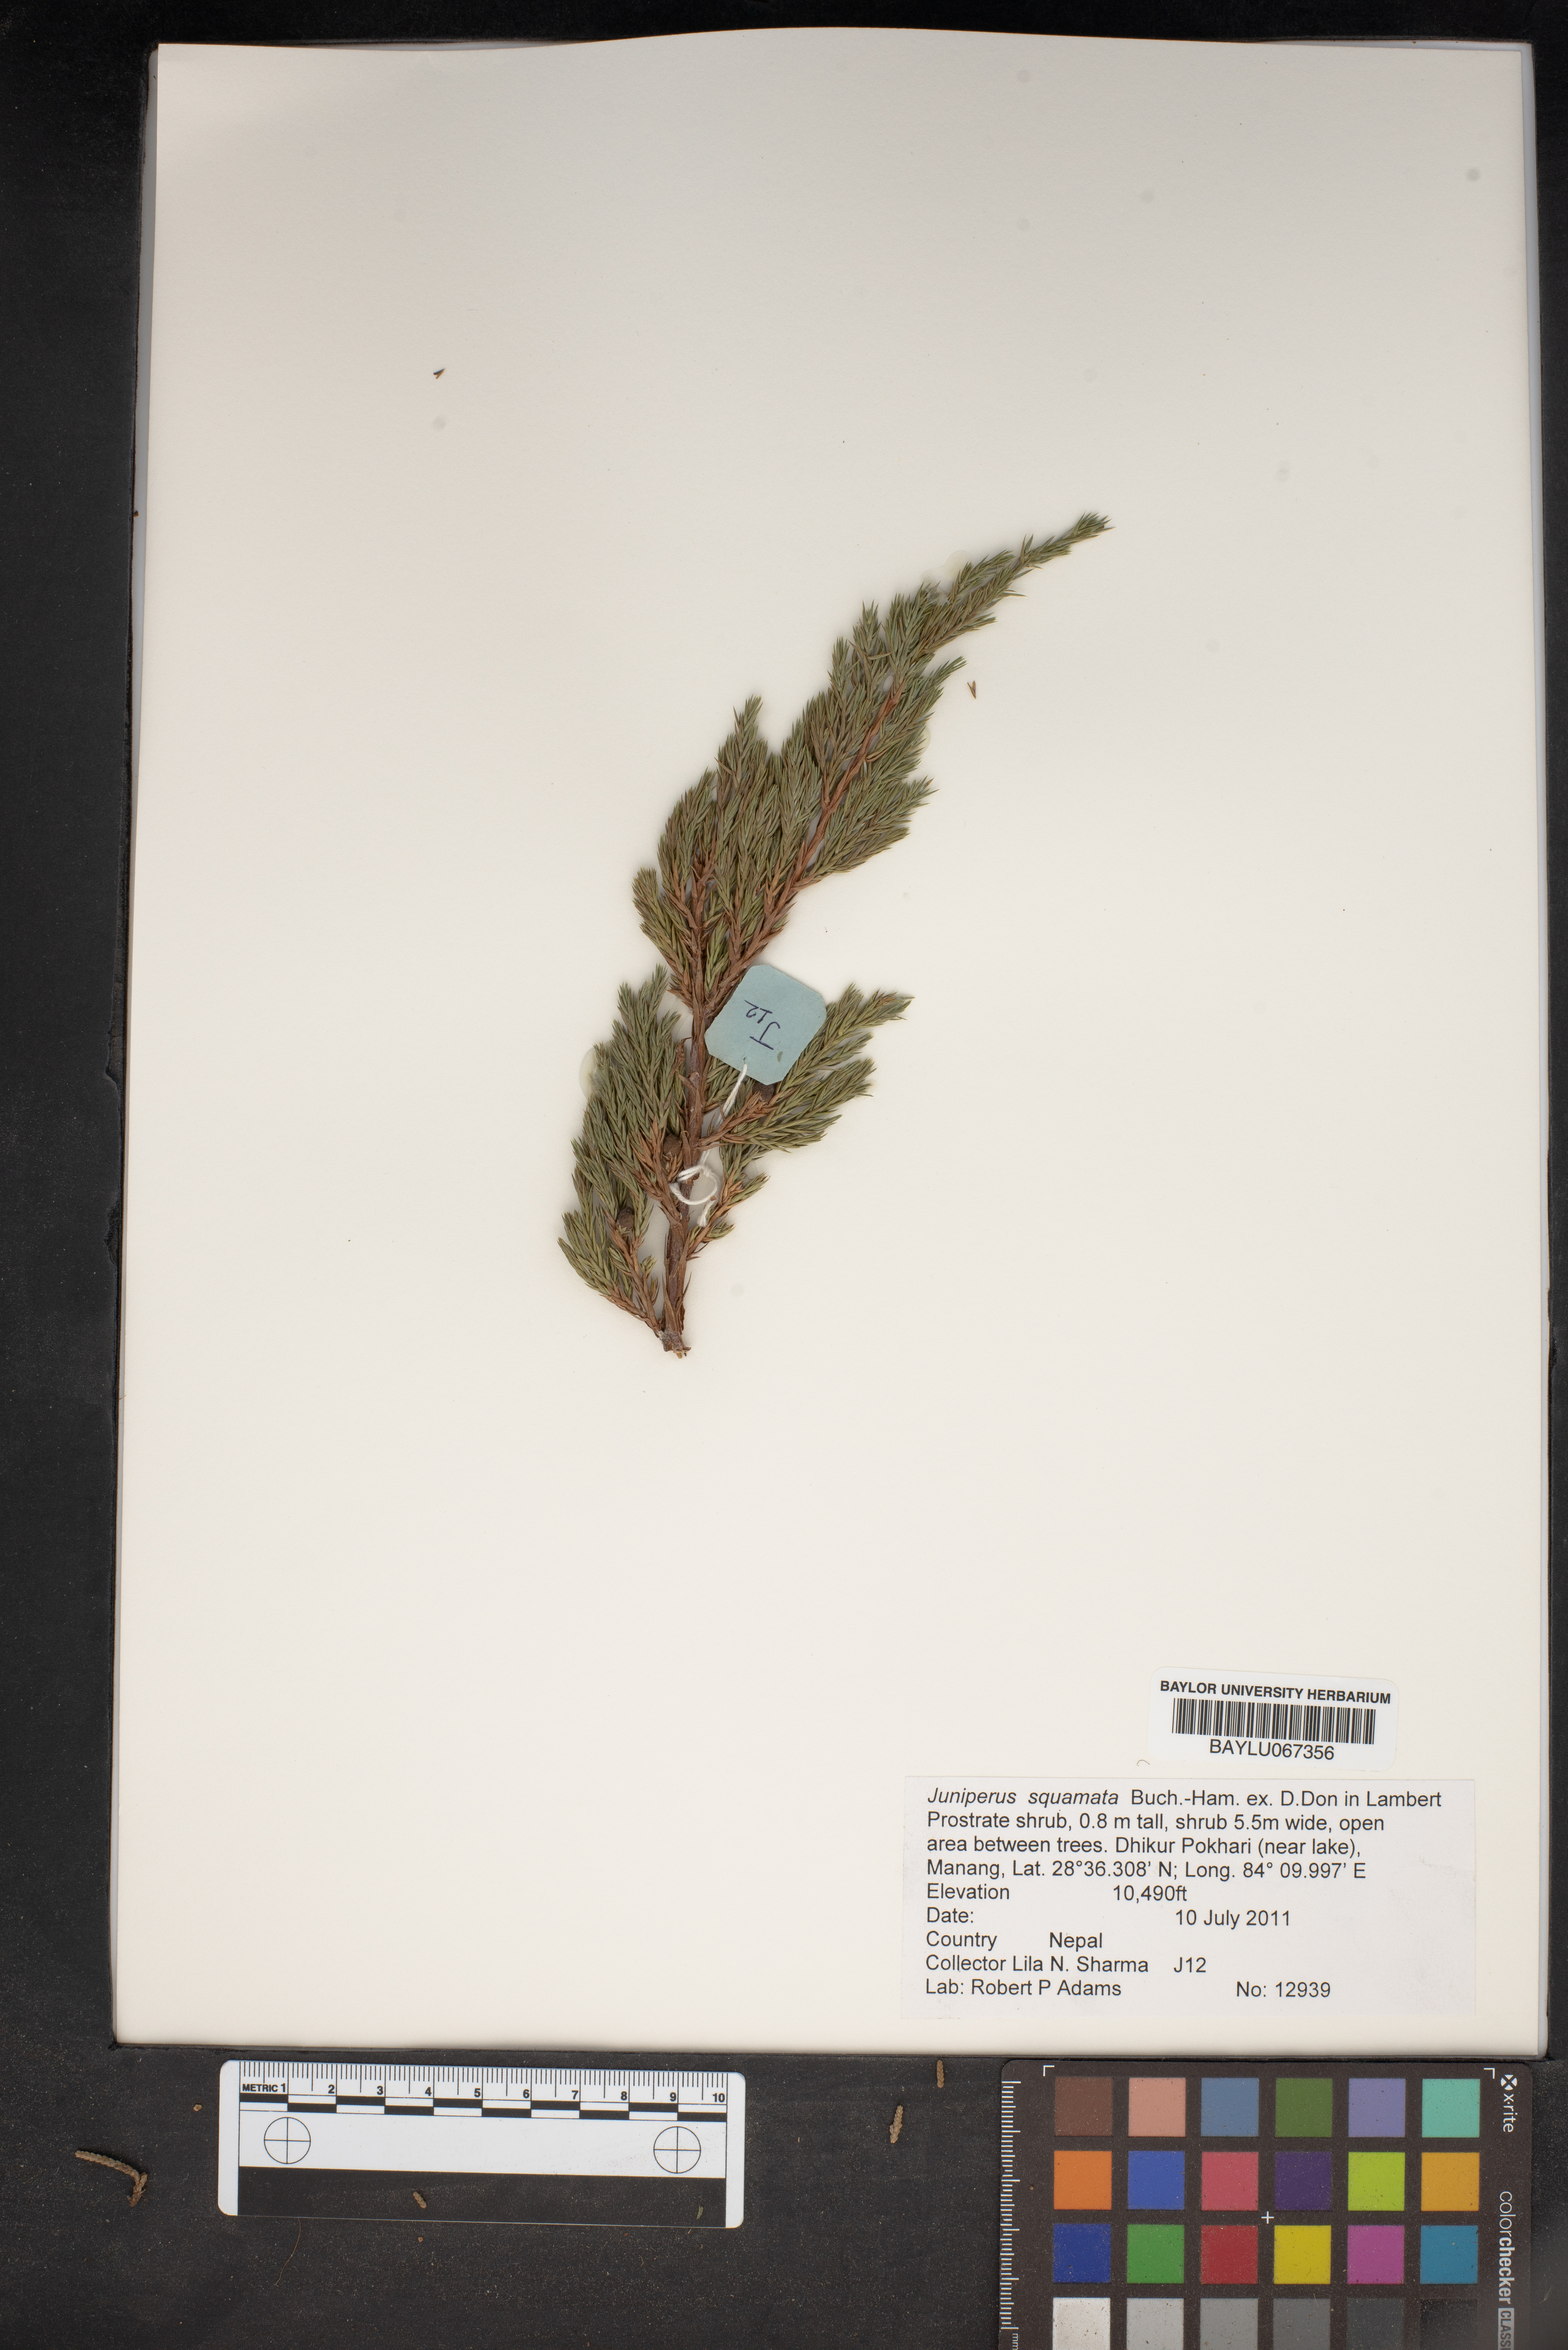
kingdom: Plantae
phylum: Tracheophyta
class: Pinopsida
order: Pinales
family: Cupressaceae
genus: Juniperus
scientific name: Juniperus squamata
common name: Flaky juniper
